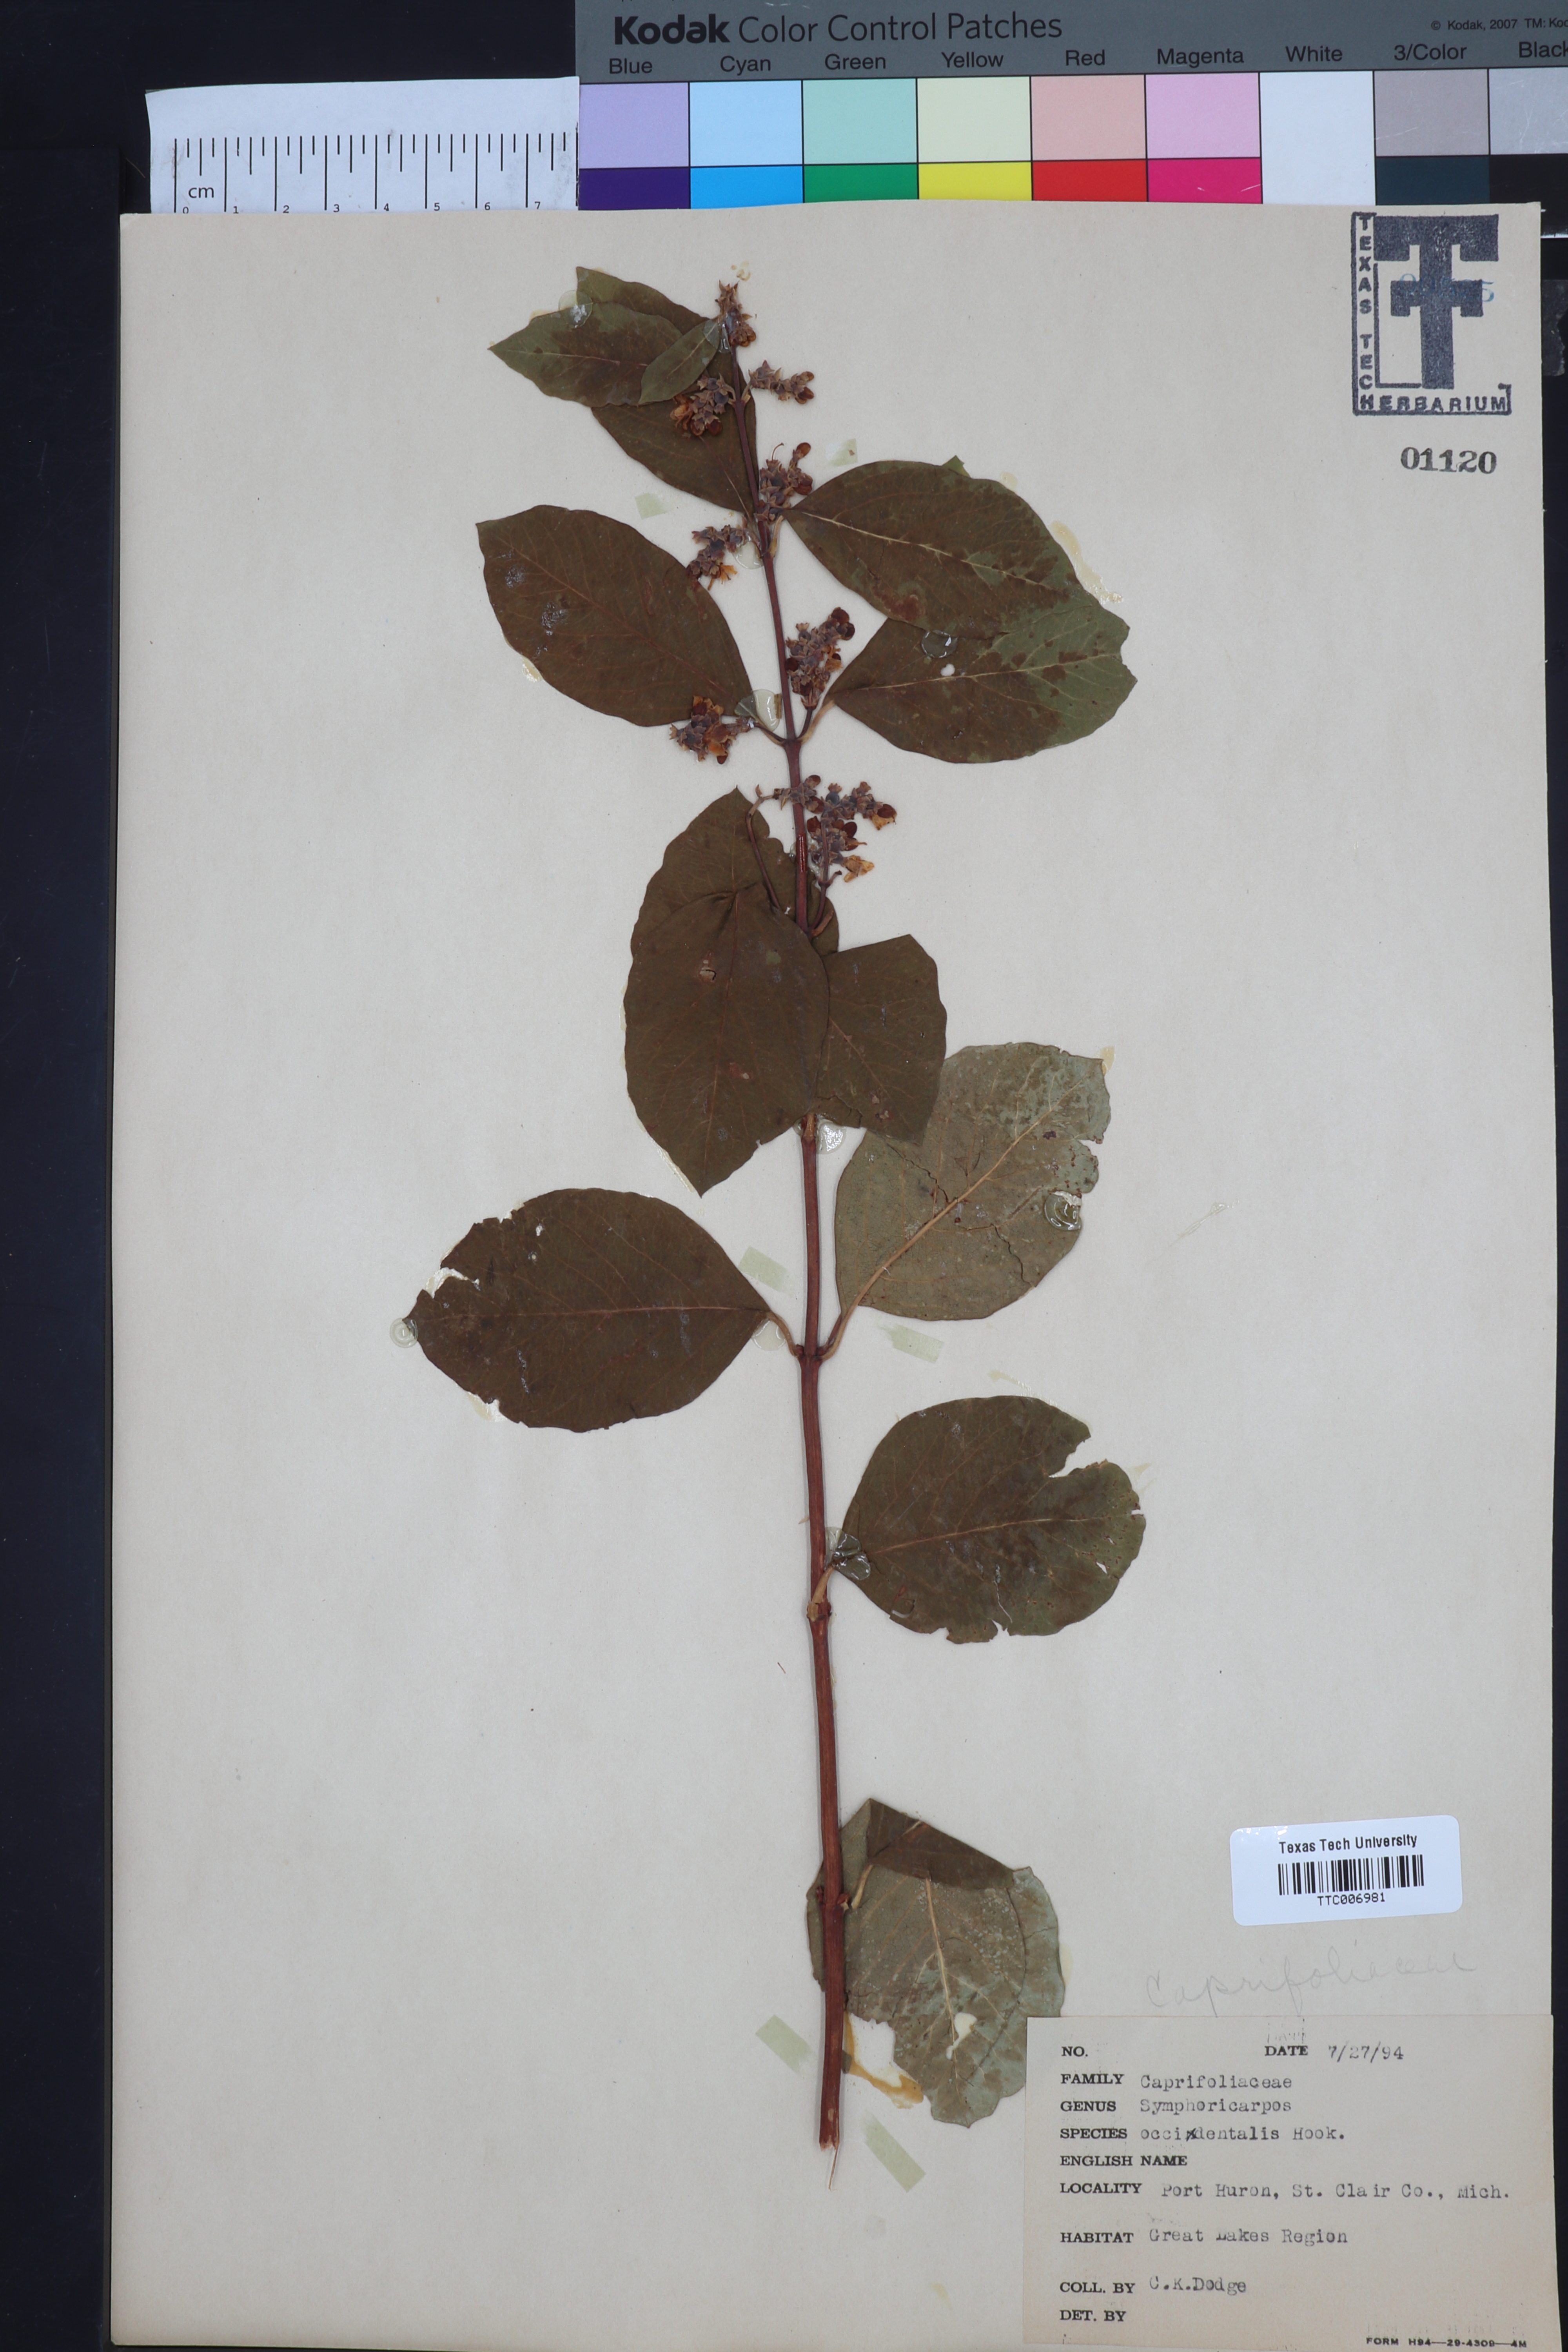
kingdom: Plantae
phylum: Tracheophyta
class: Magnoliopsida
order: Dipsacales
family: Caprifoliaceae
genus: Symphoricarpos
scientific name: Symphoricarpos occidentalis
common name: Wolfberry
